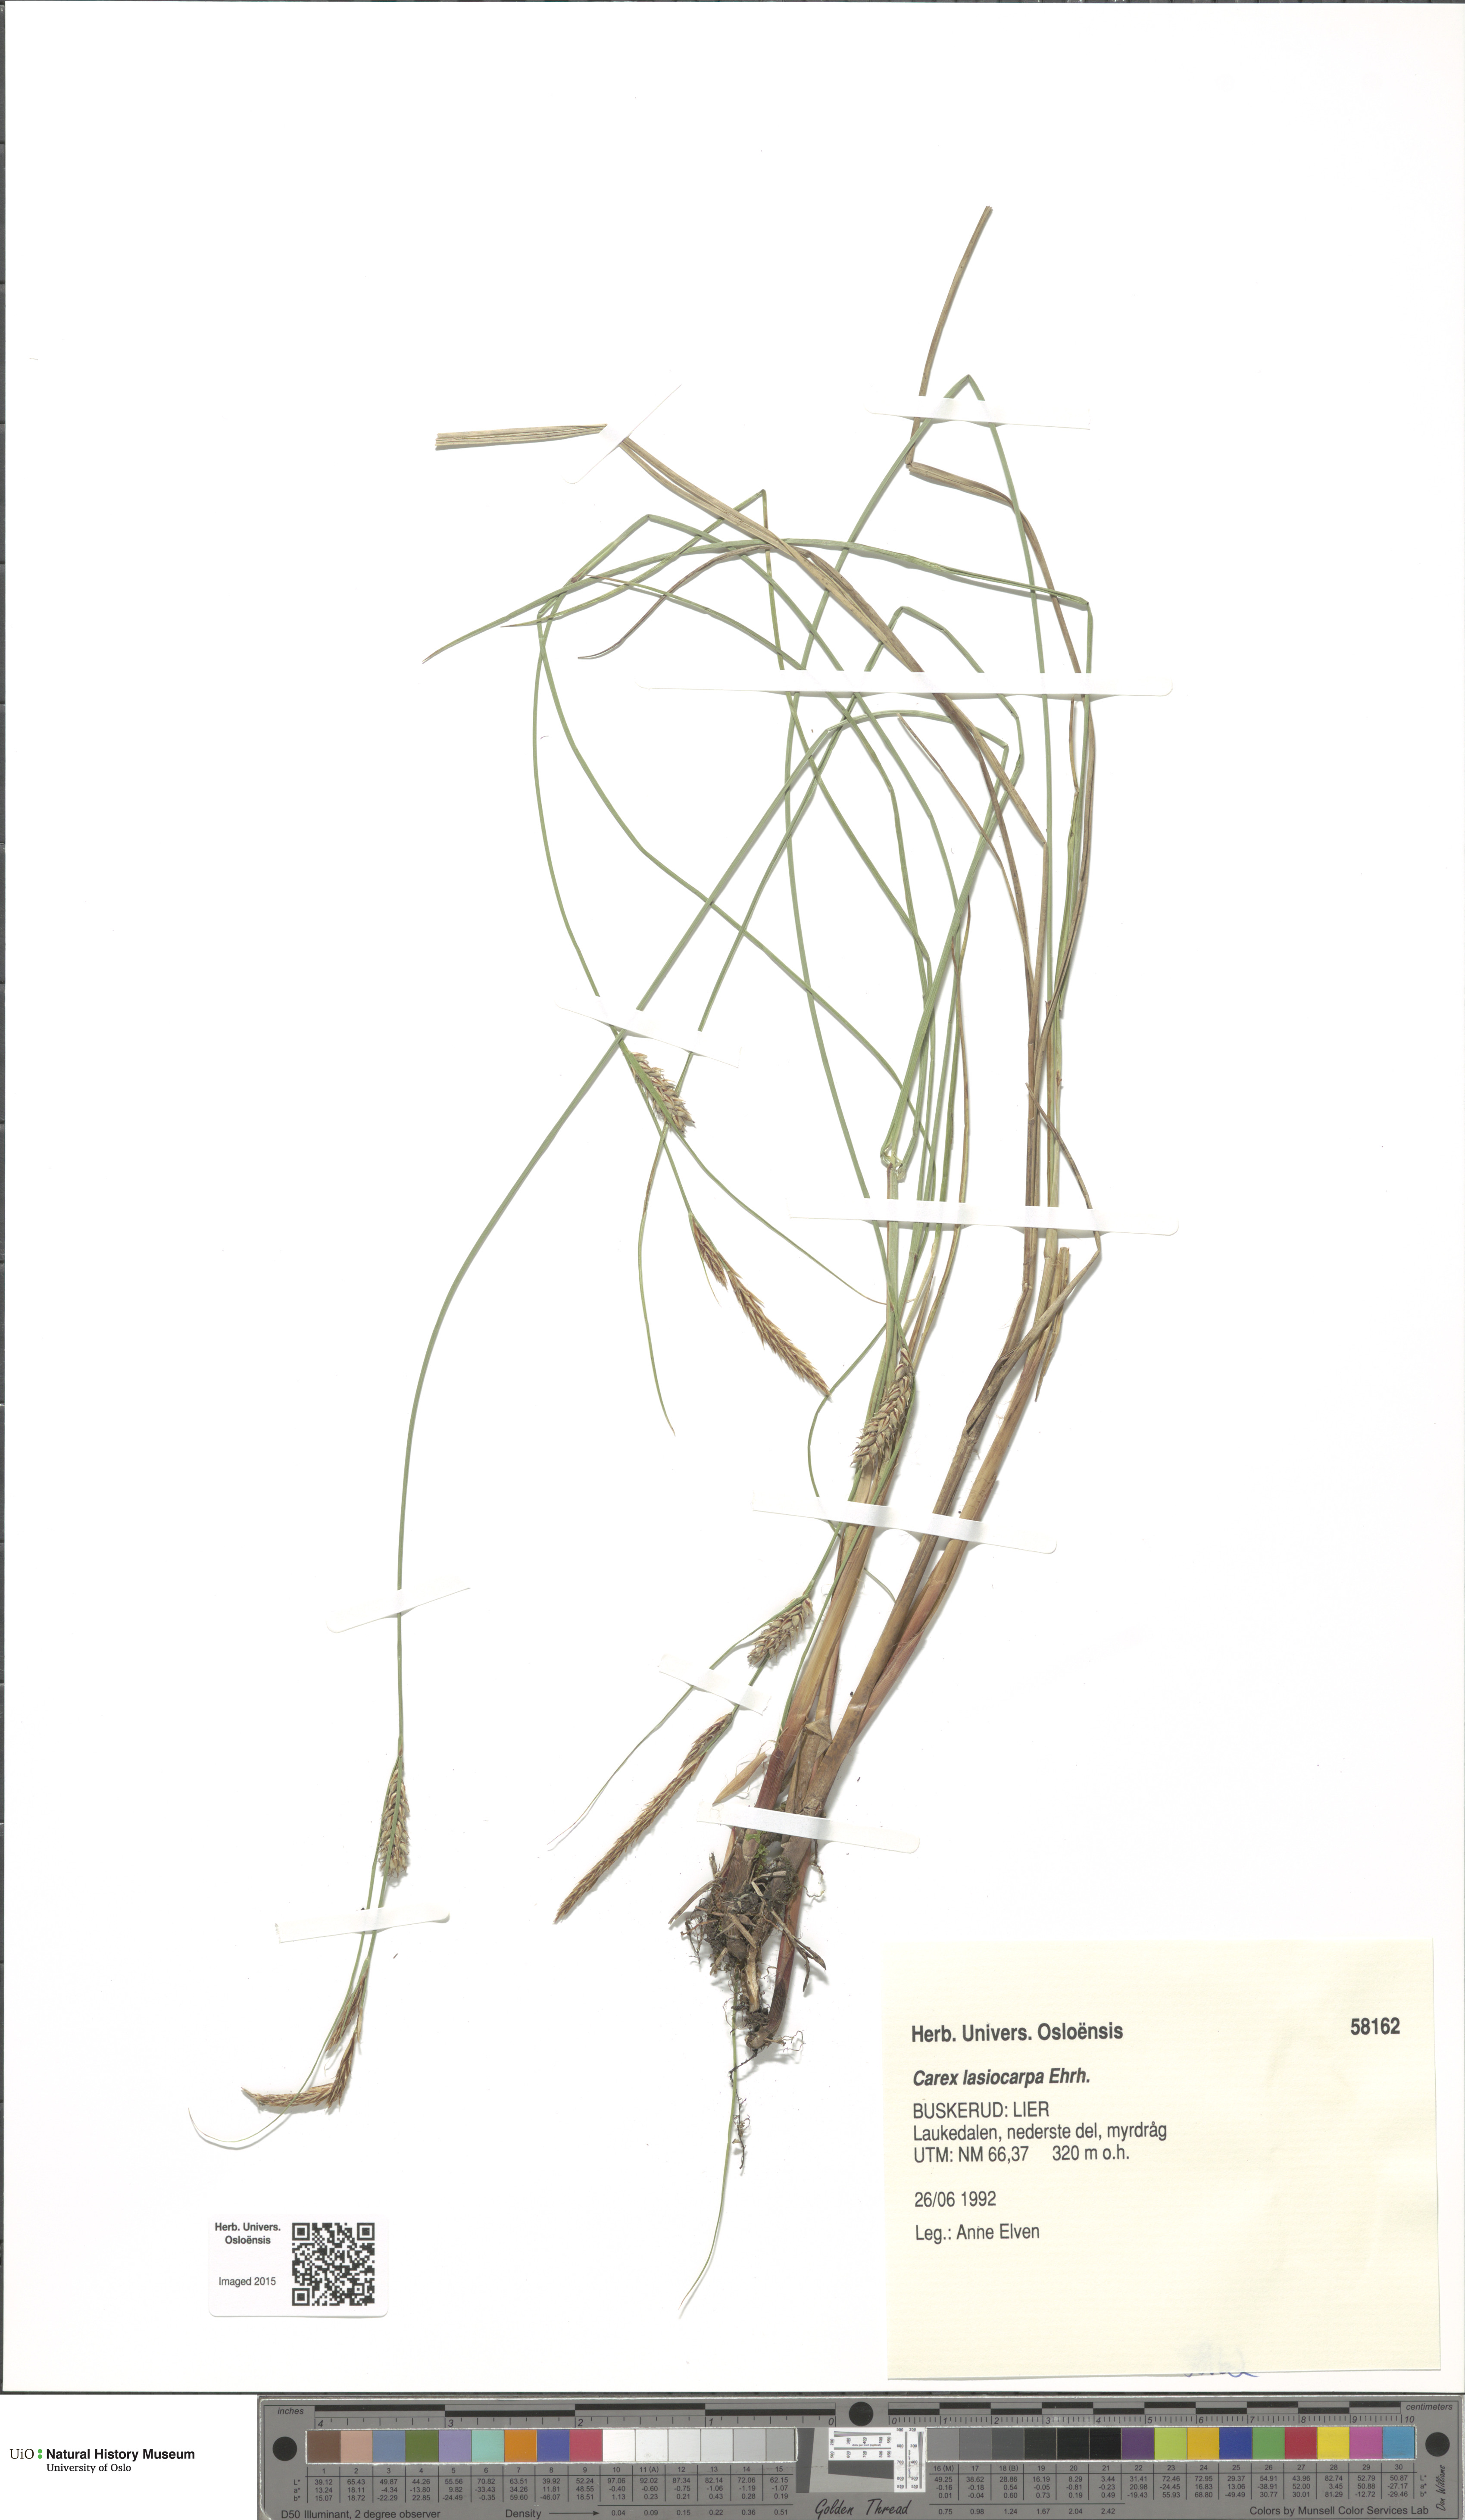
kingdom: Plantae
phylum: Tracheophyta
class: Liliopsida
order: Poales
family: Cyperaceae
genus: Carex
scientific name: Carex lasiocarpa
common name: Slender sedge
